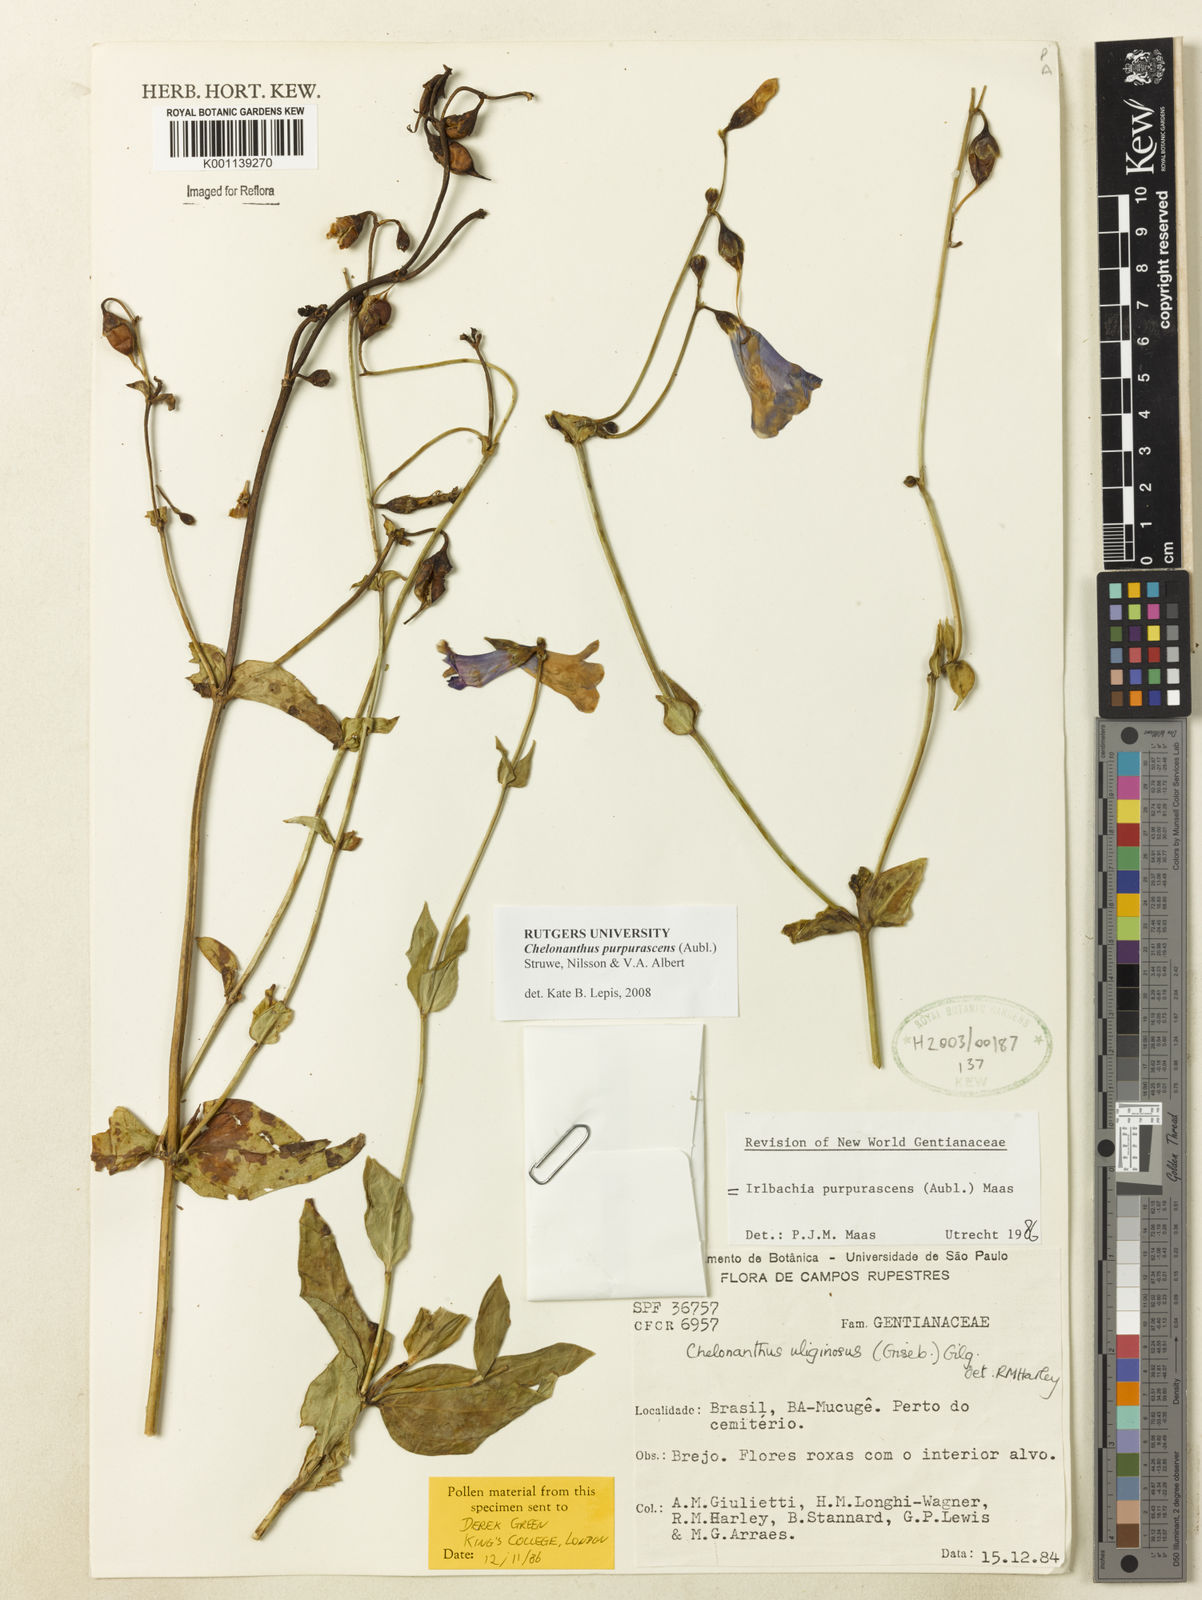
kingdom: Plantae
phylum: Tracheophyta
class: Magnoliopsida
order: Gentianales
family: Gentianaceae
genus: Chelonanthus
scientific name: Chelonanthus purpurascens
